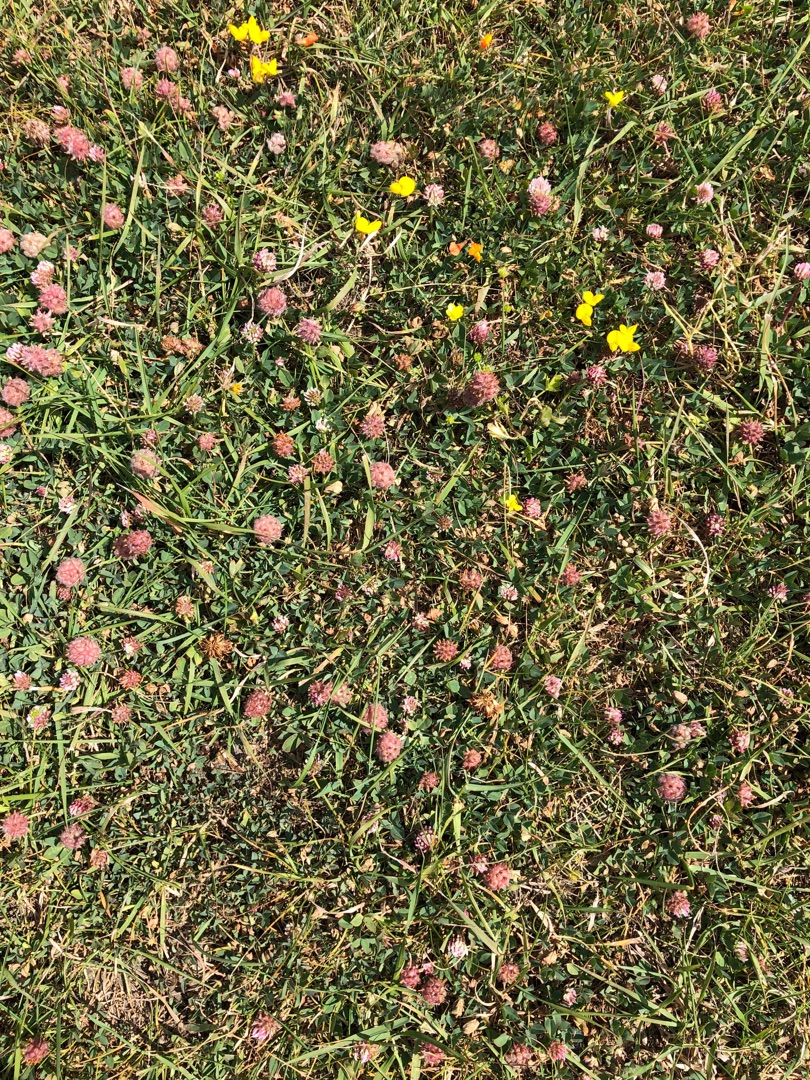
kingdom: Plantae
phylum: Tracheophyta
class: Magnoliopsida
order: Fabales
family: Fabaceae
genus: Trifolium
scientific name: Trifolium fragiferum
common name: Jordbær-kløver
